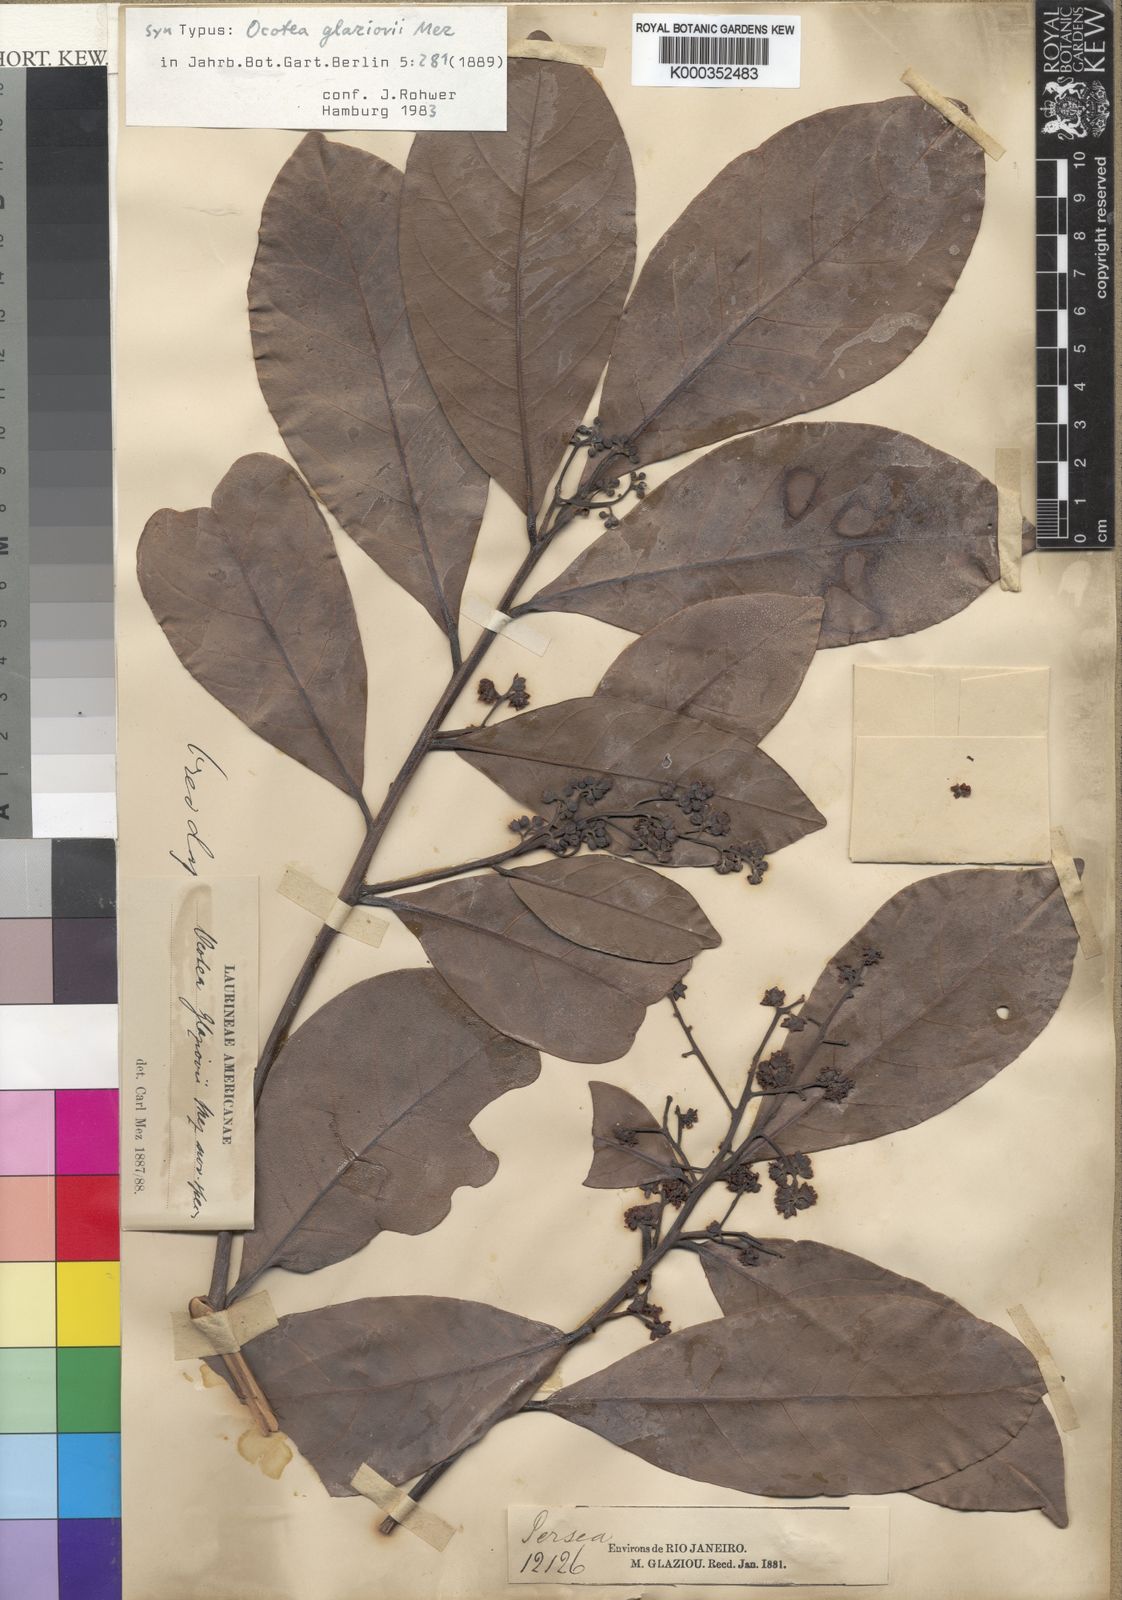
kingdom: Plantae
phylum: Tracheophyta
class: Magnoliopsida
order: Laurales
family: Lauraceae
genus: Ocotea
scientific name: Ocotea glaziovii
